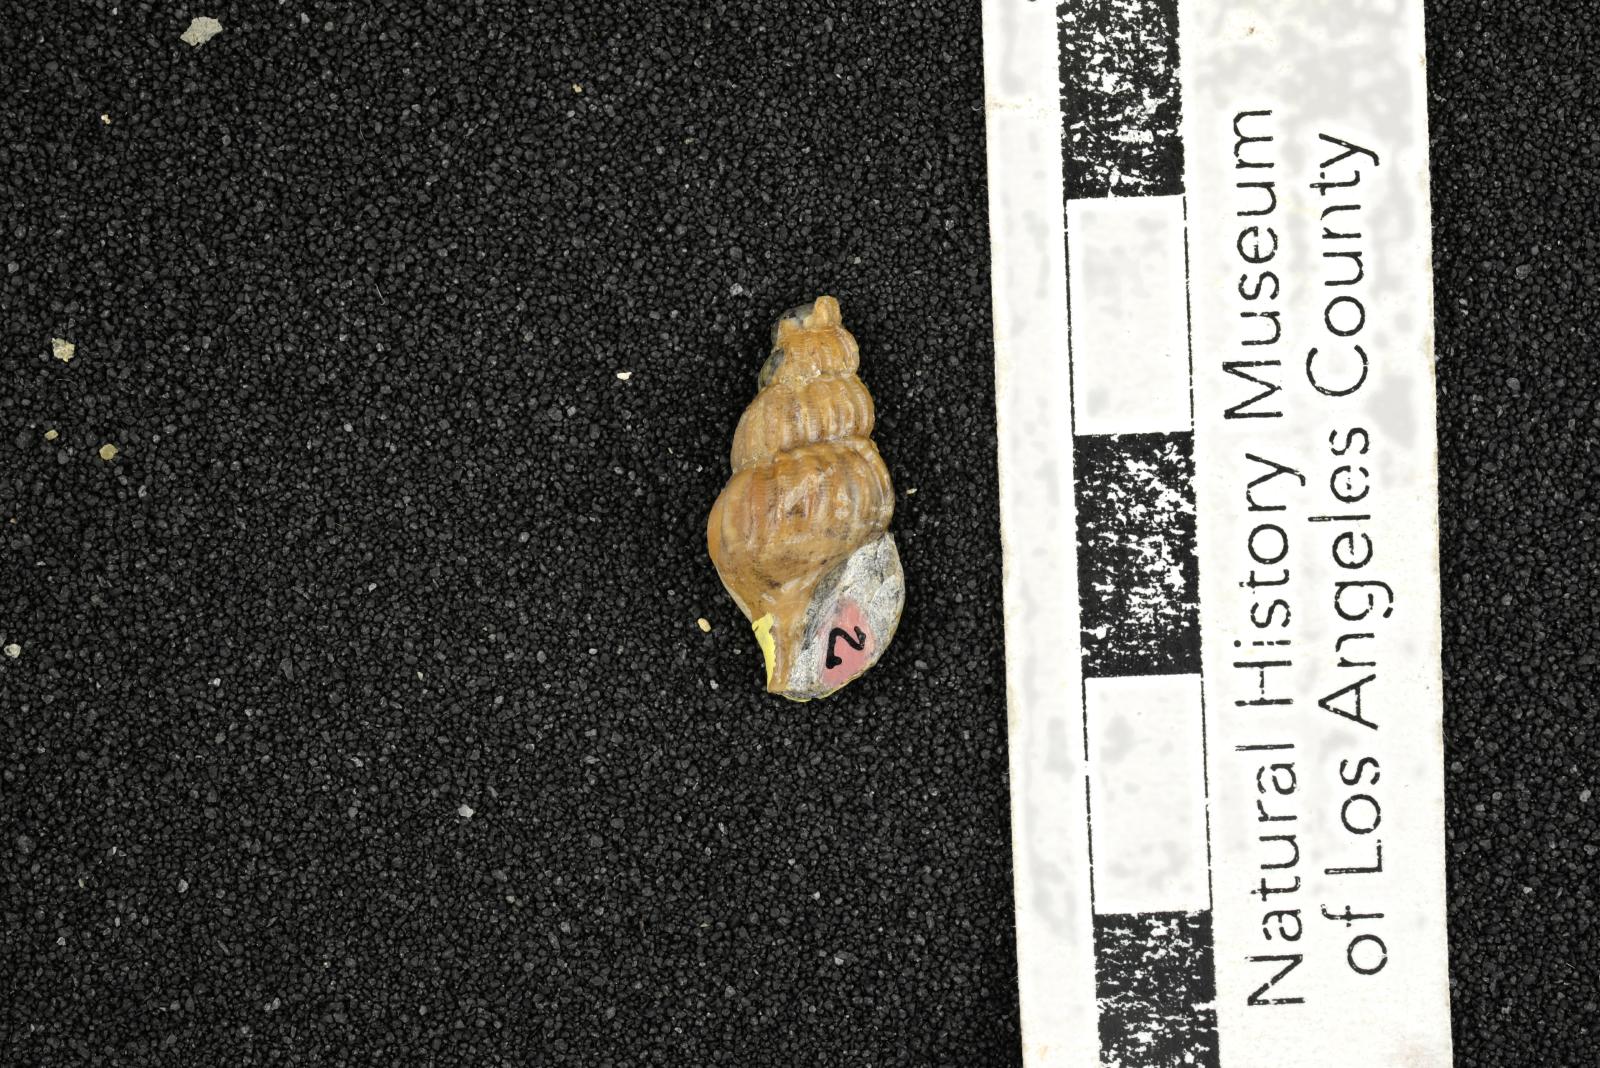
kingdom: Animalia
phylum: Mollusca
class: Gastropoda
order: Littorinimorpha
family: Aporrhaidae
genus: Alarimella
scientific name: Alarimella anae
